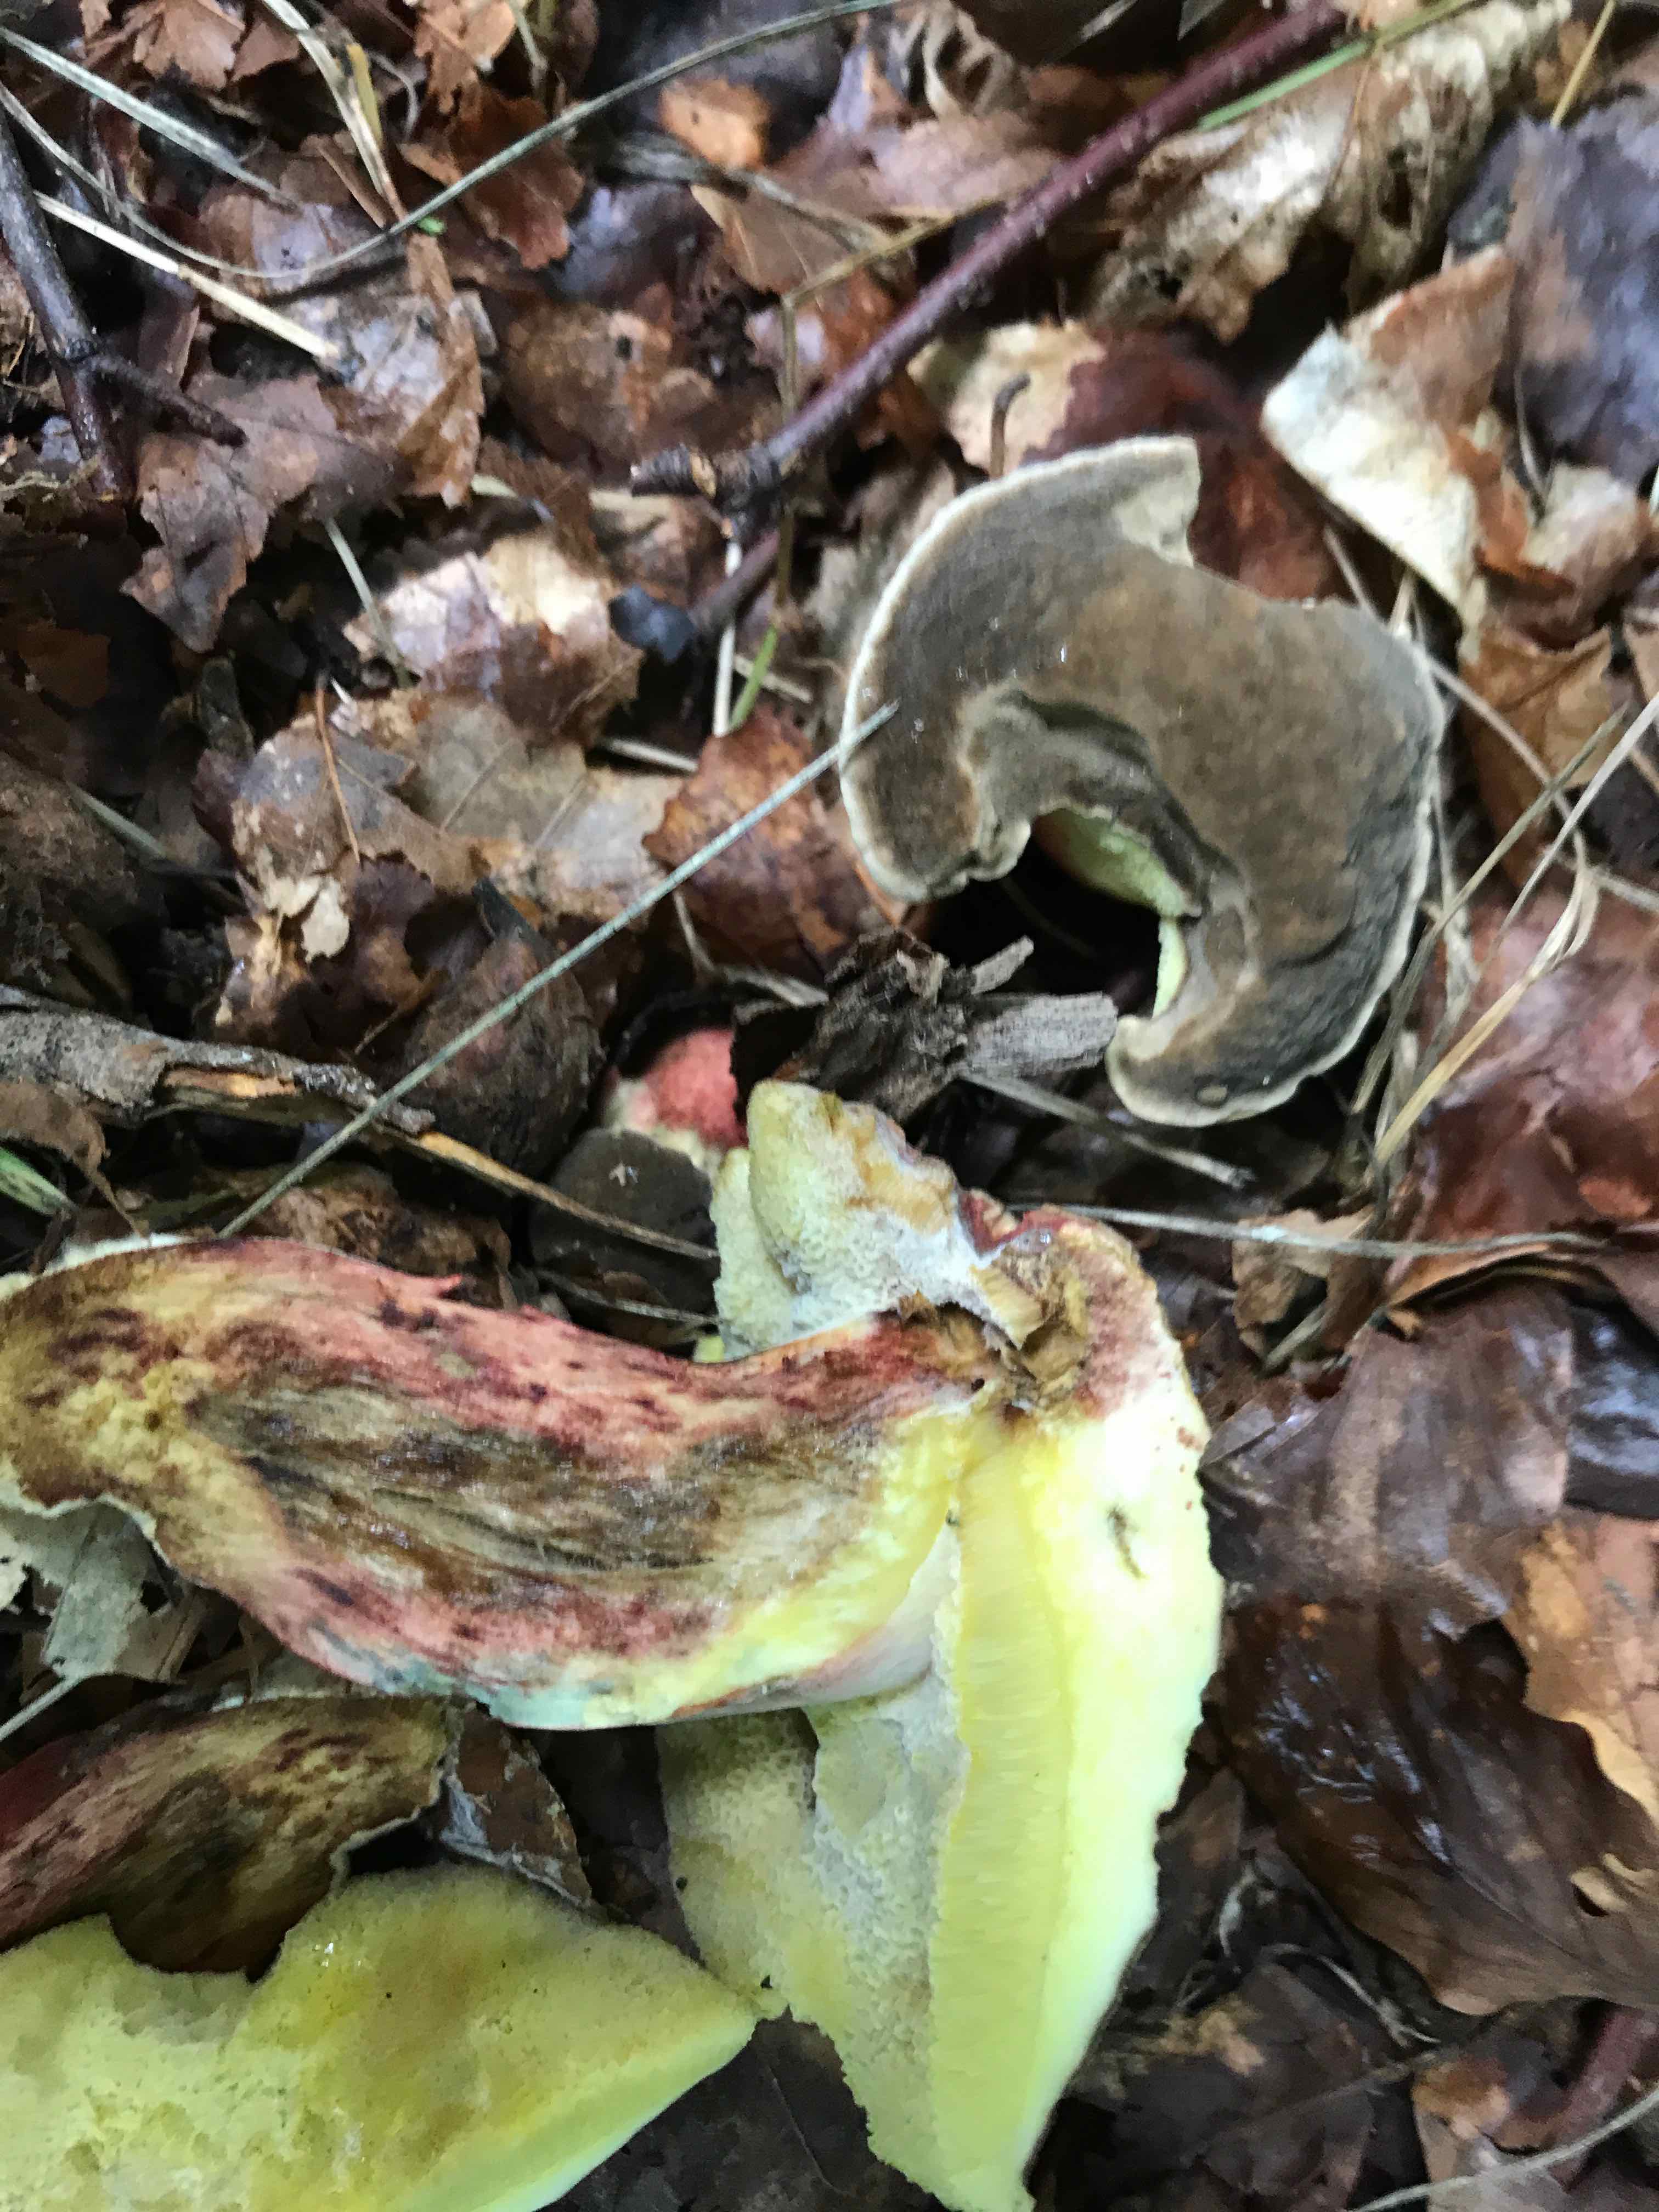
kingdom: Fungi
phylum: Basidiomycota
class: Agaricomycetes
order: Boletales
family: Boletaceae
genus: Xerocomellus
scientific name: Xerocomellus pruinatus
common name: dugget rørhat
